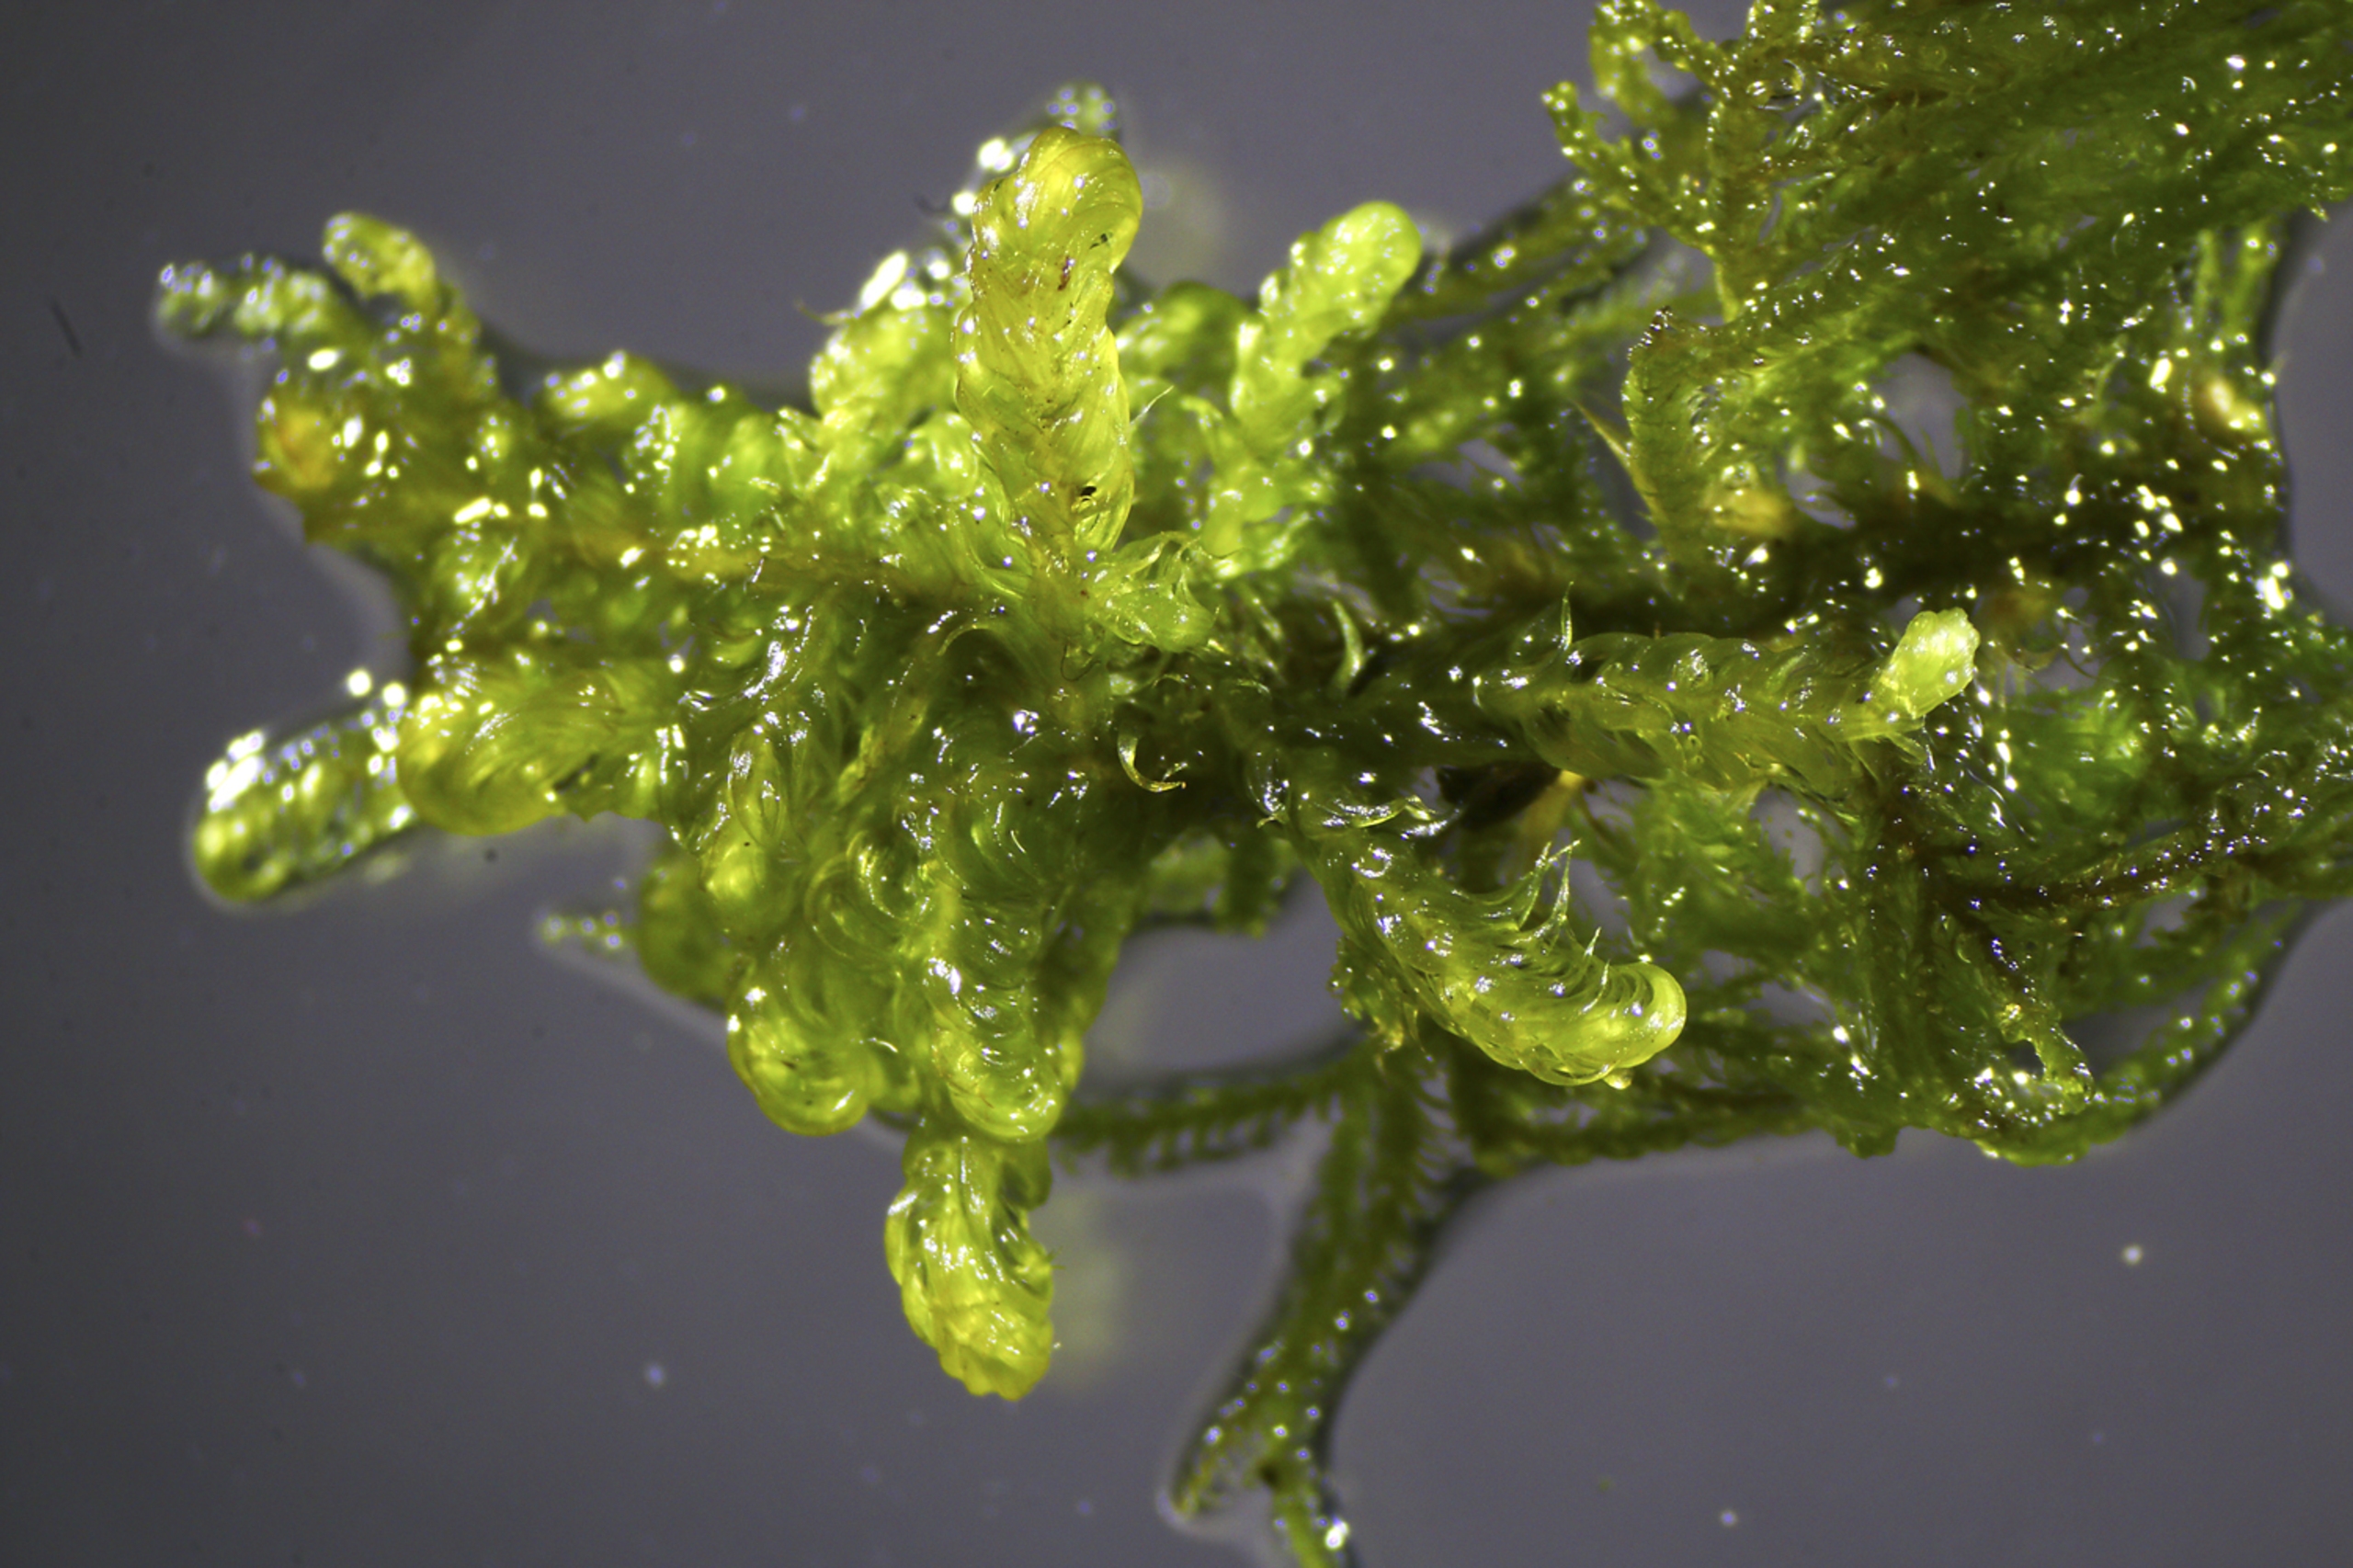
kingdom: Plantae
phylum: Bryophyta
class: Bryopsida
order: Hypnales
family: Amblystegiaceae
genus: Palustriella
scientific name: Palustriella commutata
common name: Bredbladet vældmos
